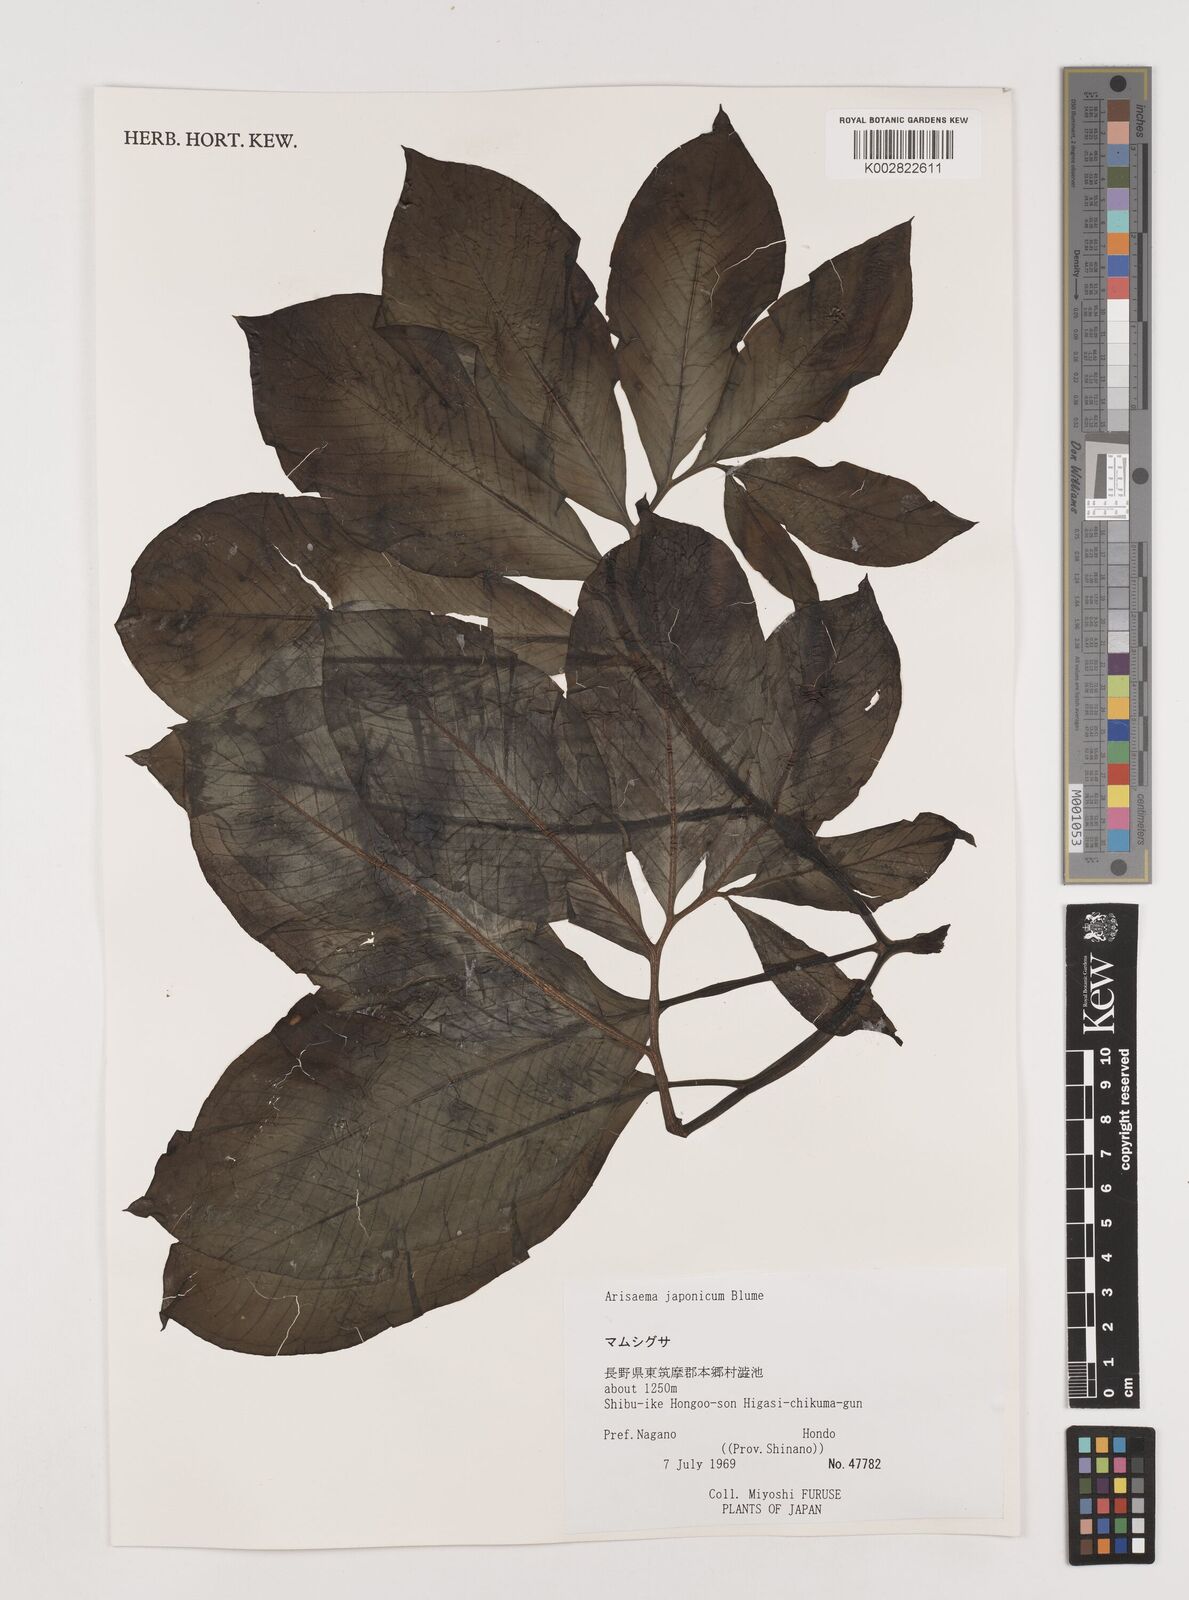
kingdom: Plantae
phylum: Tracheophyta
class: Liliopsida
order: Alismatales
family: Araceae
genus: Arisaema
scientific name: Arisaema serratum
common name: Japanese arisaema
